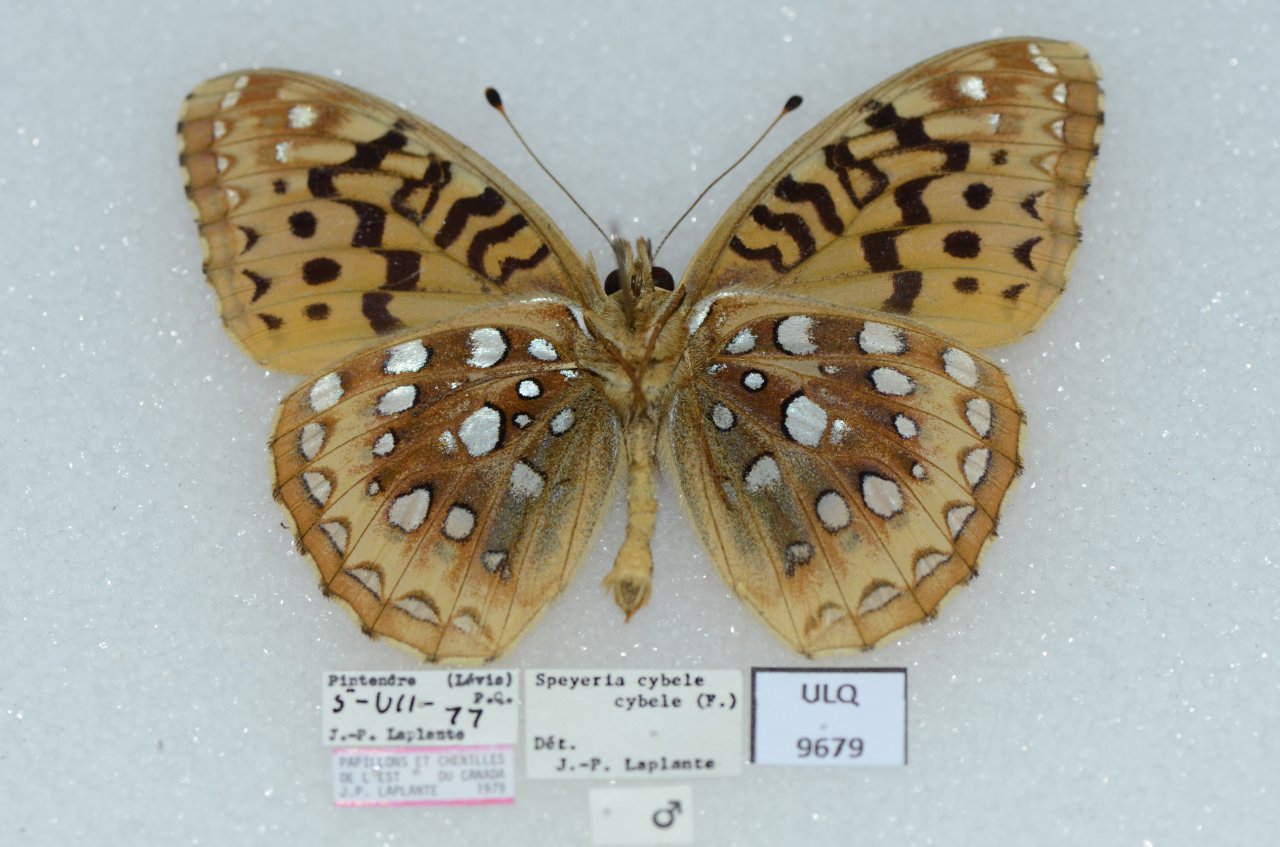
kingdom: Animalia
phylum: Arthropoda
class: Insecta
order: Lepidoptera
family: Nymphalidae
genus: Speyeria
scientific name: Speyeria cybele
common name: Great Spangled Fritillary
